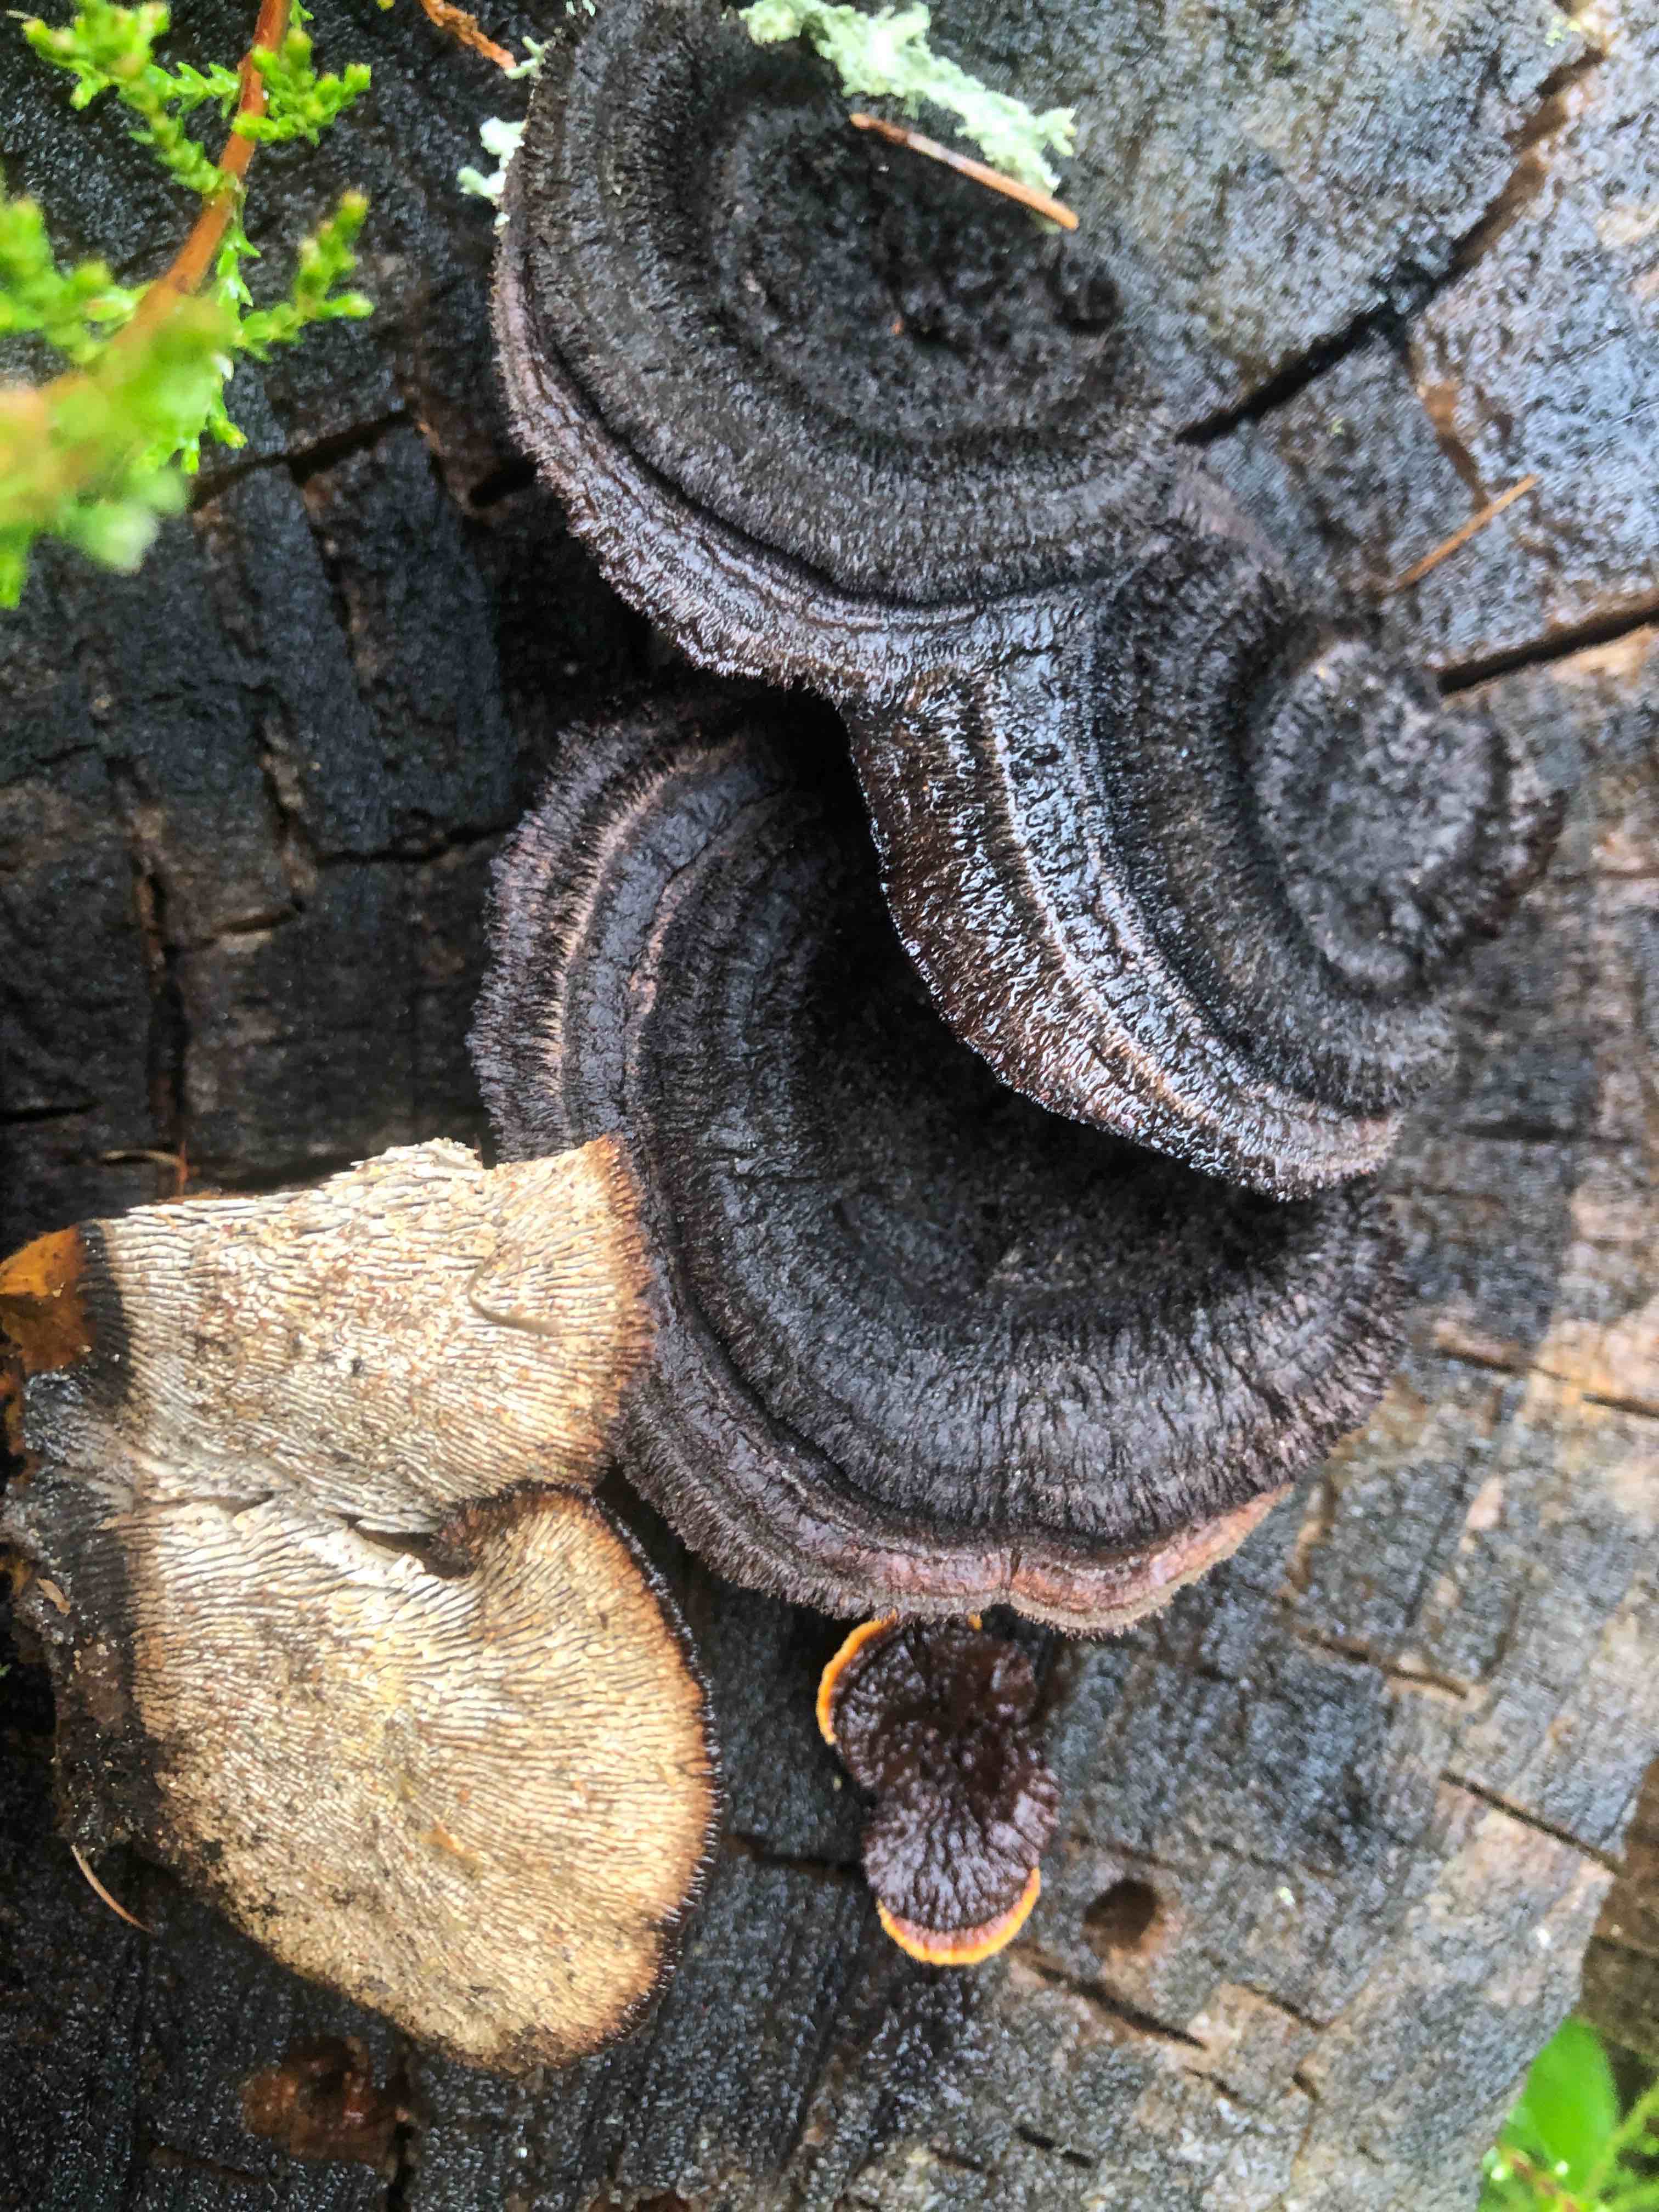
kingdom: Fungi
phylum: Basidiomycota
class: Agaricomycetes
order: Gloeophyllales
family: Gloeophyllaceae
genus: Gloeophyllum
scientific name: Gloeophyllum sepiarium
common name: fyrre-korkhat
